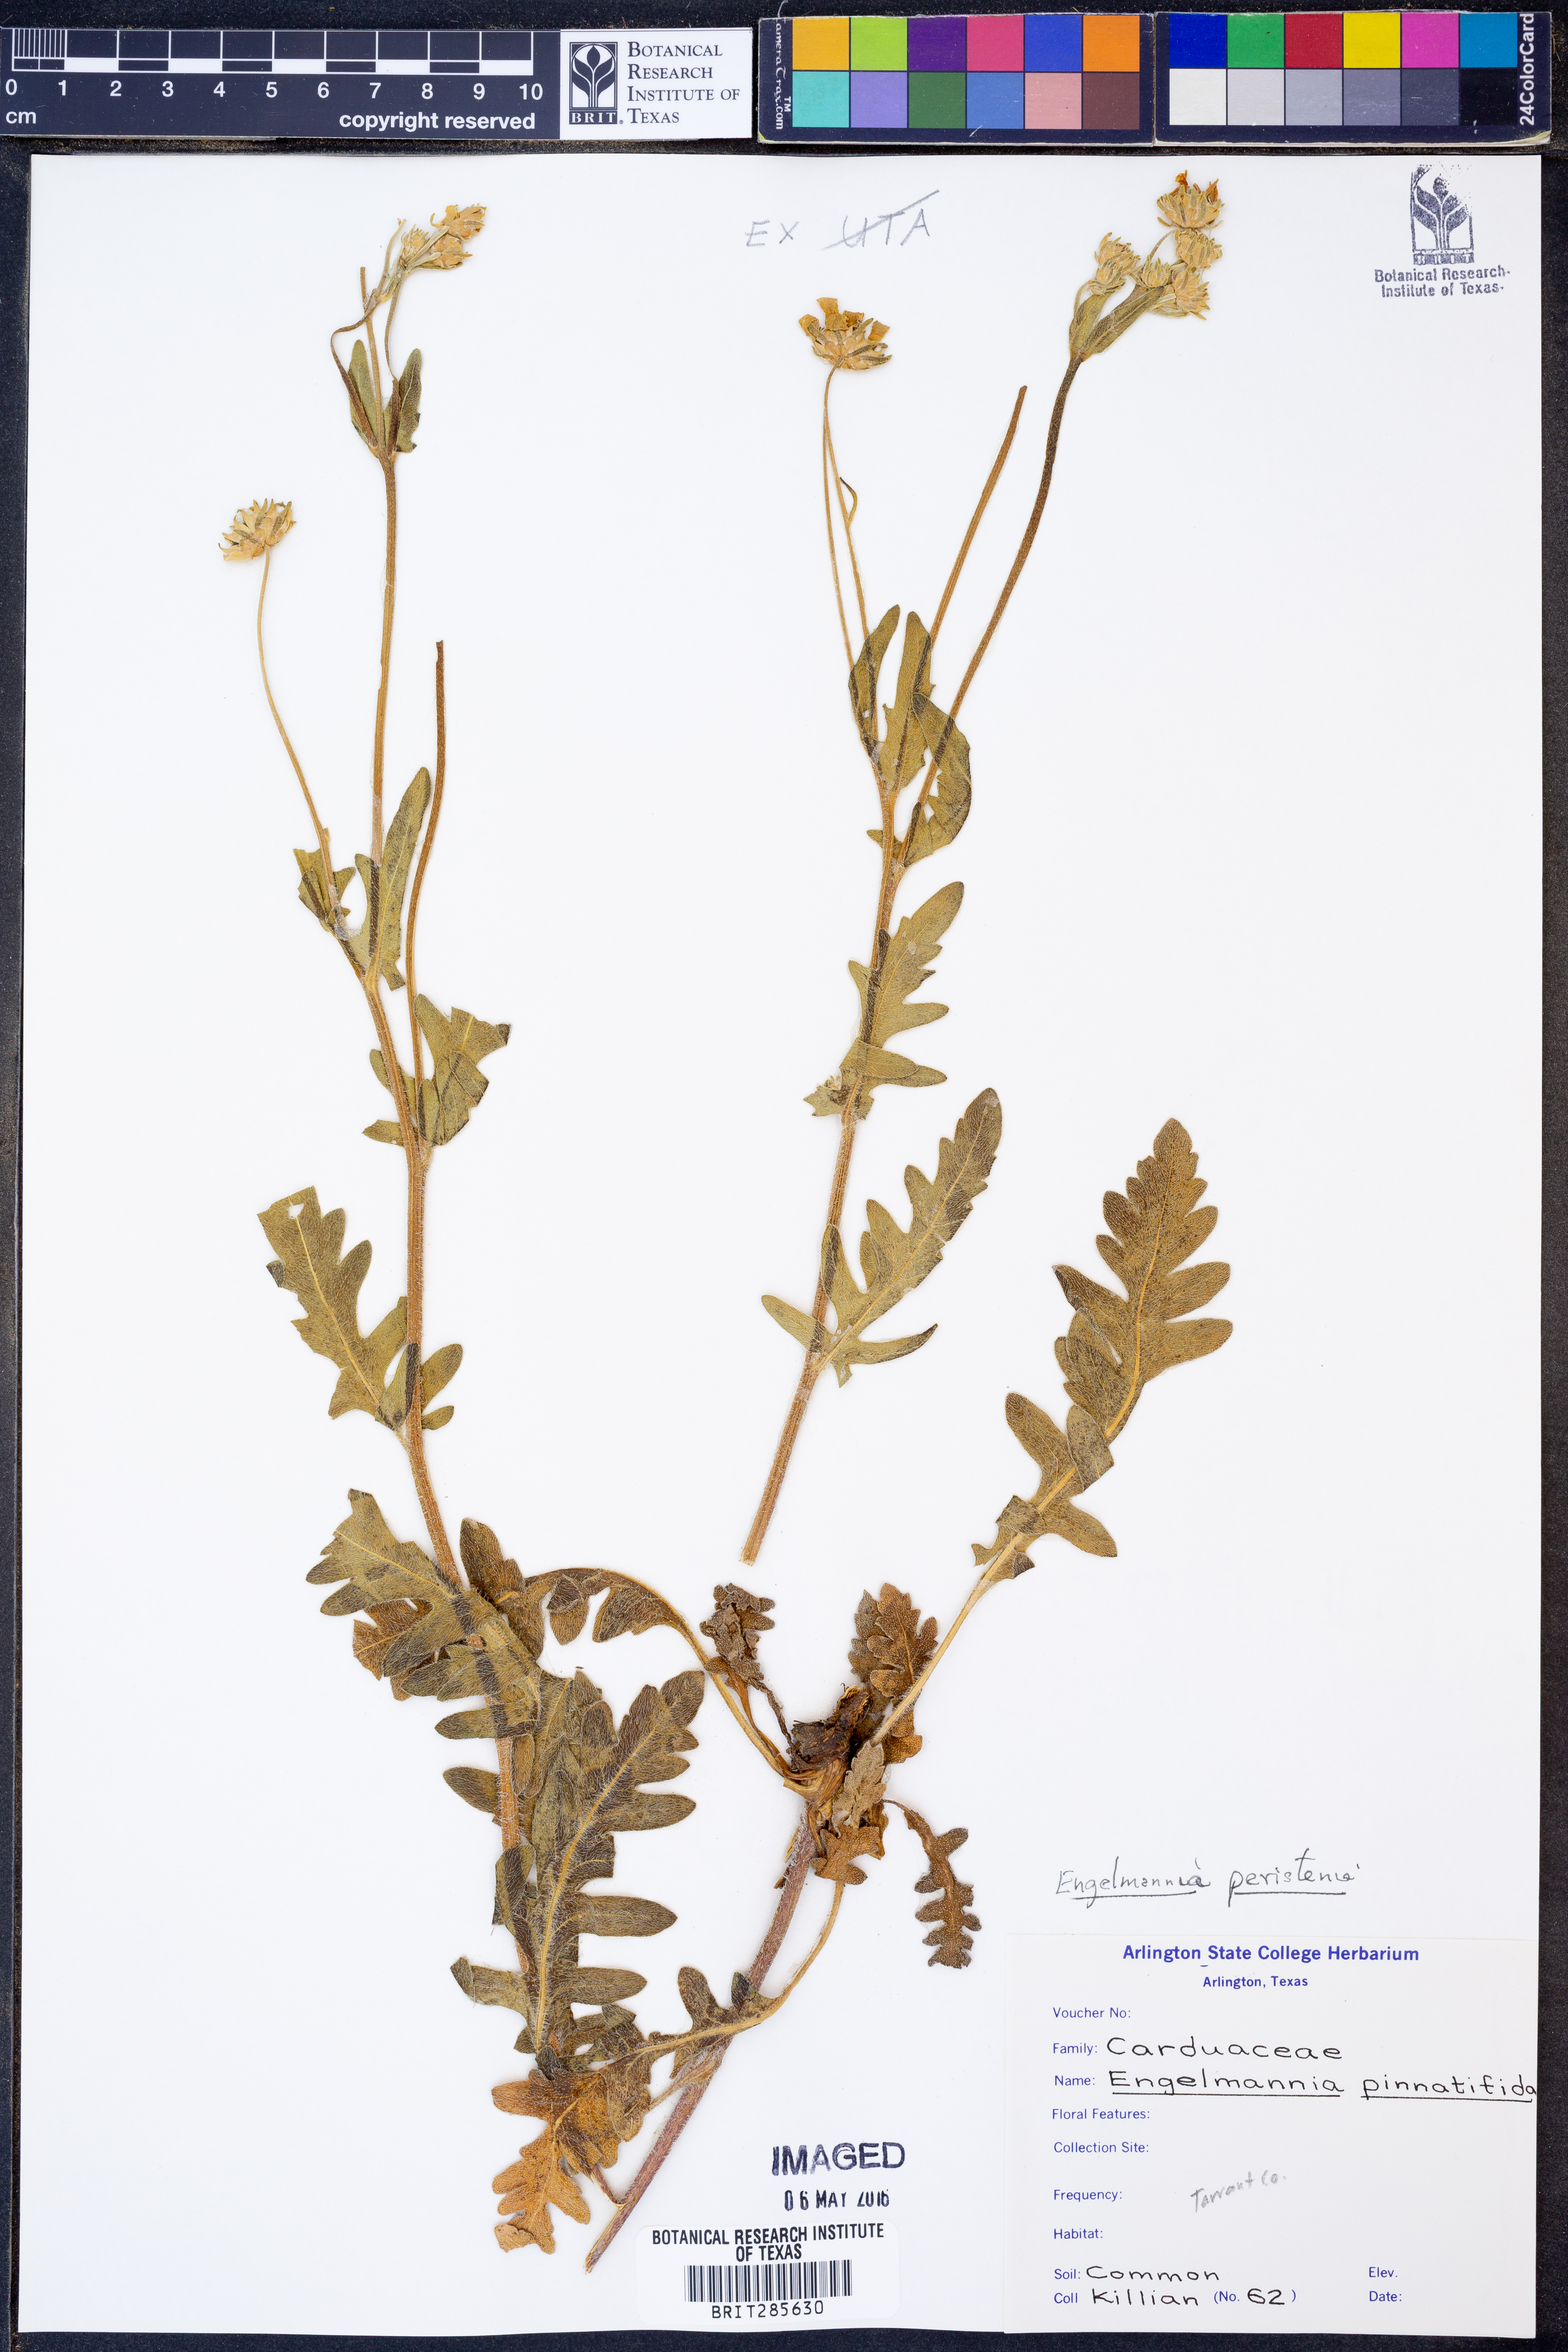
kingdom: Plantae
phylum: Tracheophyta
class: Magnoliopsida
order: Asterales
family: Asteraceae
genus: Engelmannia
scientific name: Engelmannia peristenia
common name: Engelmann's daisy
